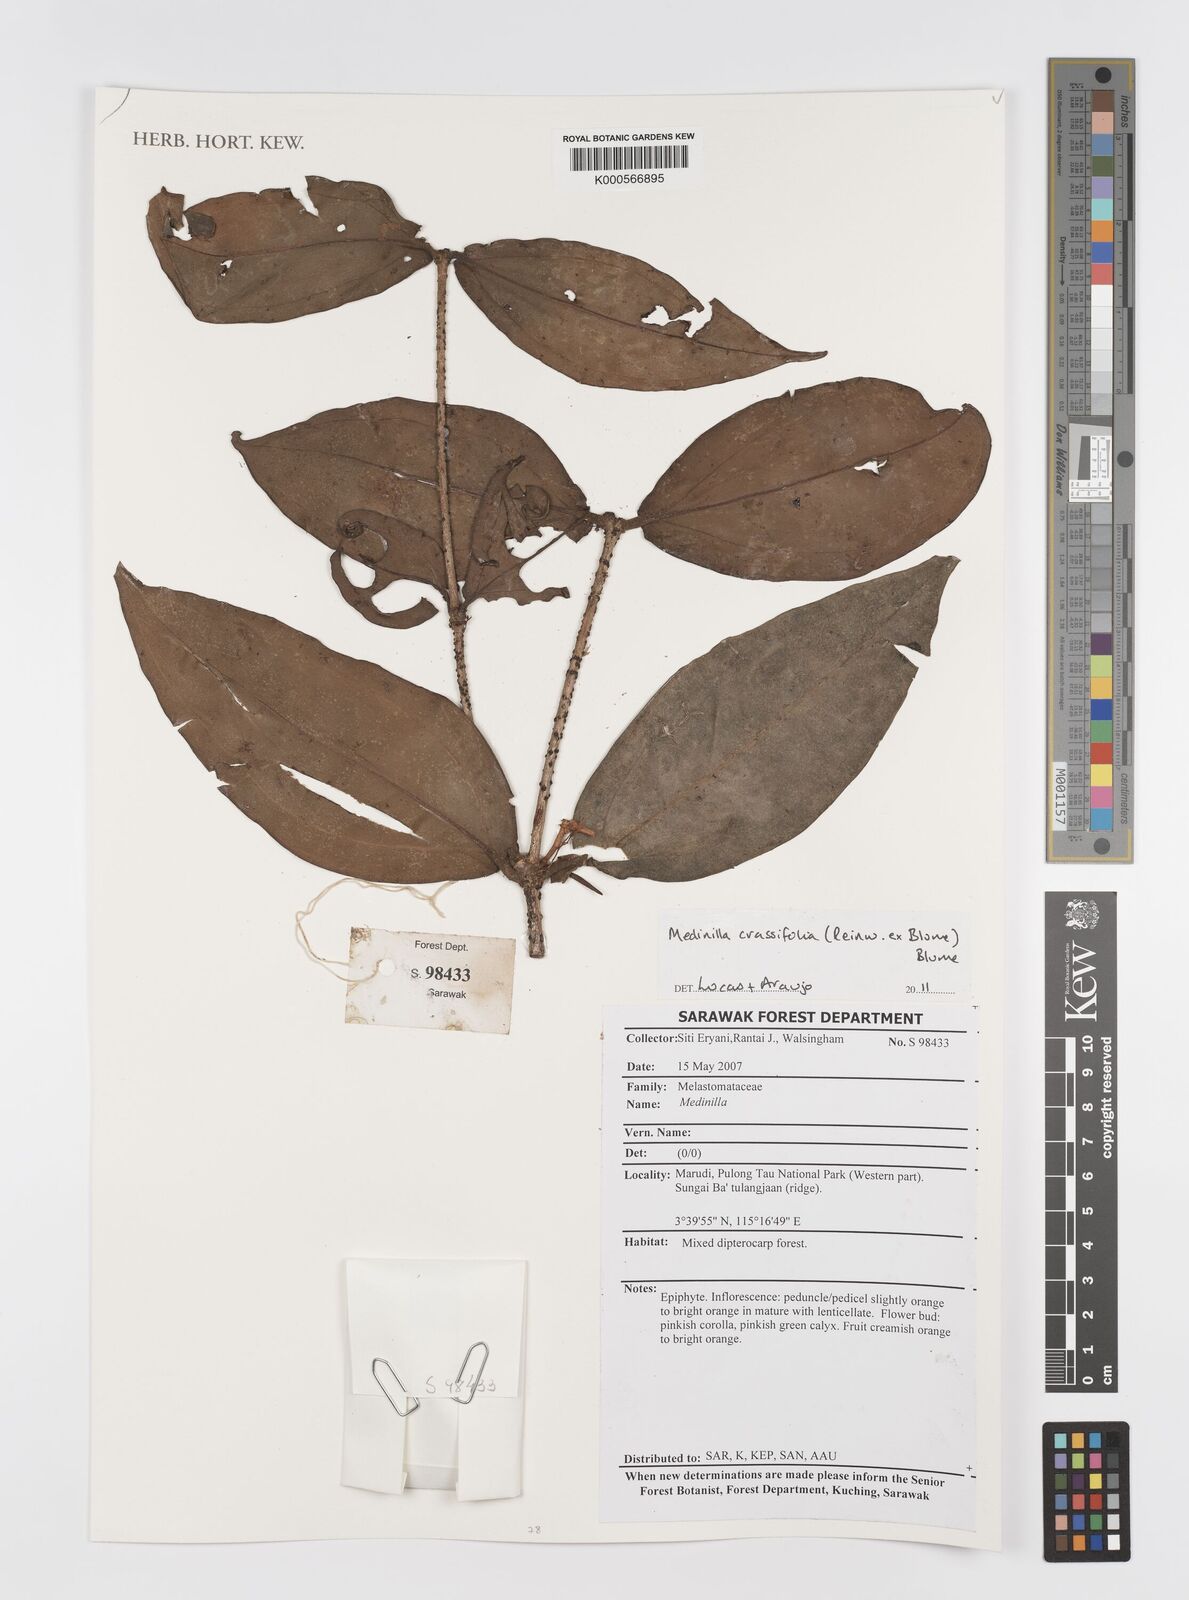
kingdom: Plantae
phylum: Tracheophyta
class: Magnoliopsida
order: Myrtales
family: Melastomataceae
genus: Medinilla
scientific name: Medinilla crassifolia
